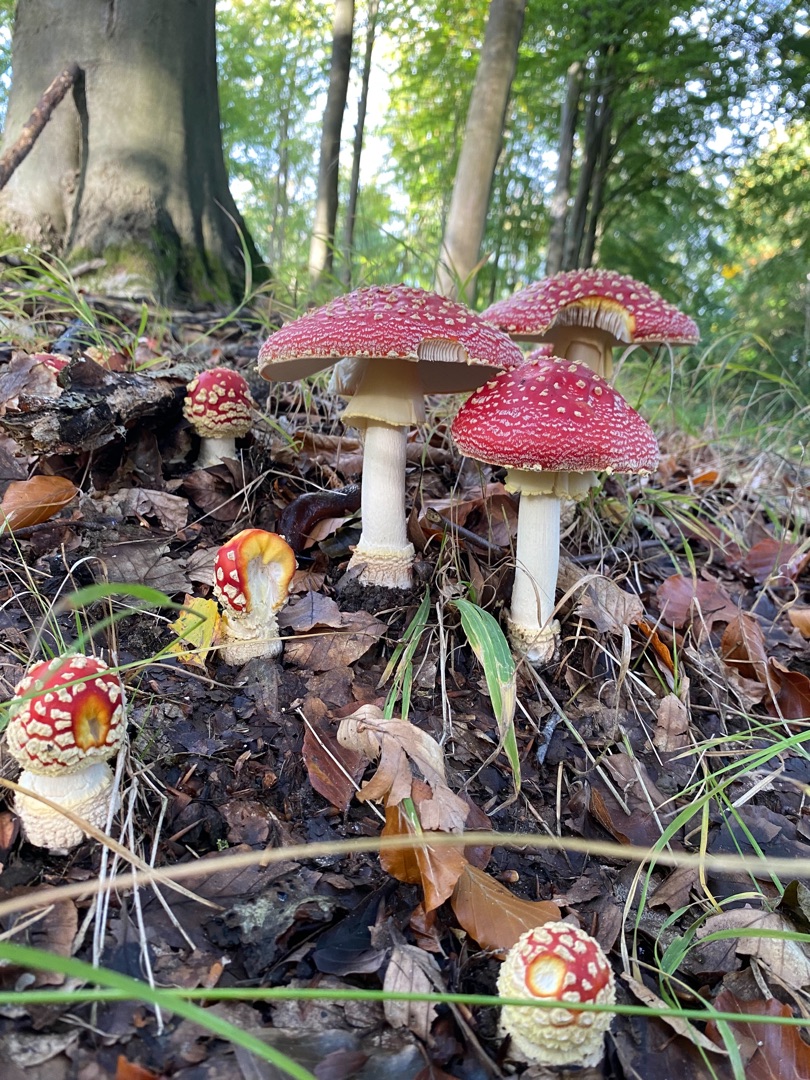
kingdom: Fungi
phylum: Basidiomycota
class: Agaricomycetes
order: Agaricales
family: Amanitaceae
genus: Amanita
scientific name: Amanita muscaria
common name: Rød fluesvamp
